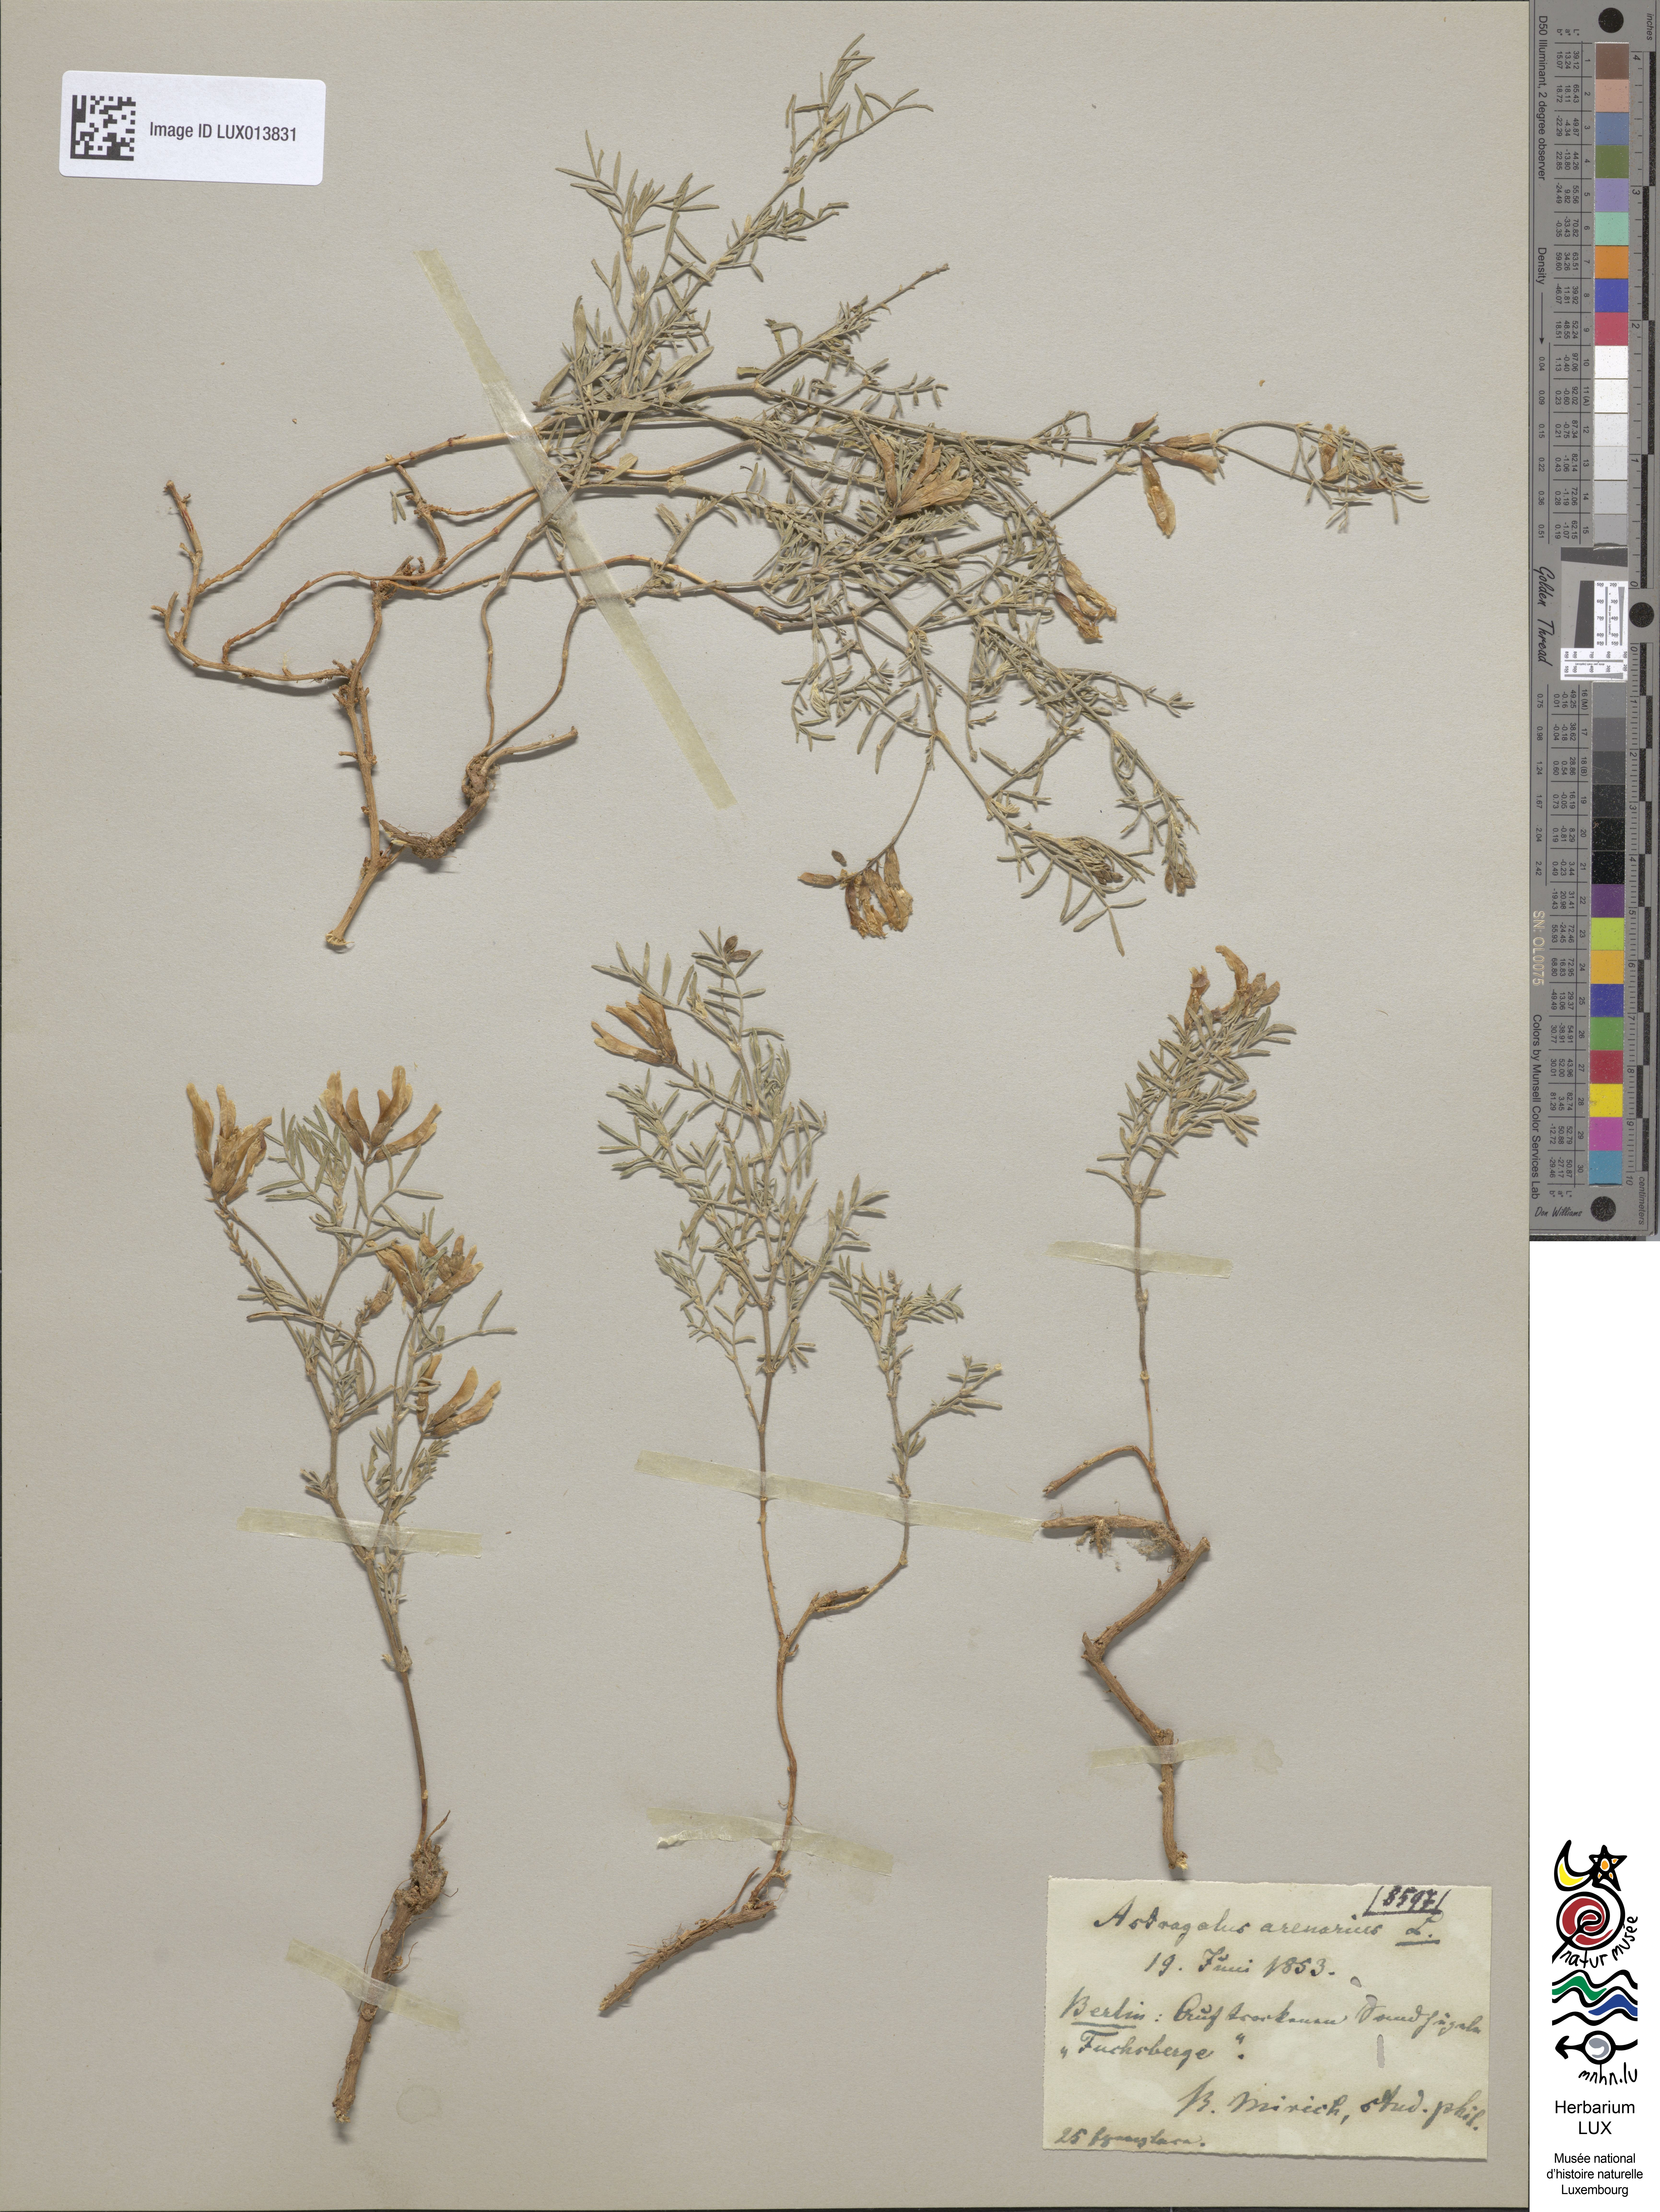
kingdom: Plantae
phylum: Tracheophyta
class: Magnoliopsida
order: Fabales
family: Fabaceae
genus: Astragalus
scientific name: Astragalus arenarius
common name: Arenarious milk-vetch
